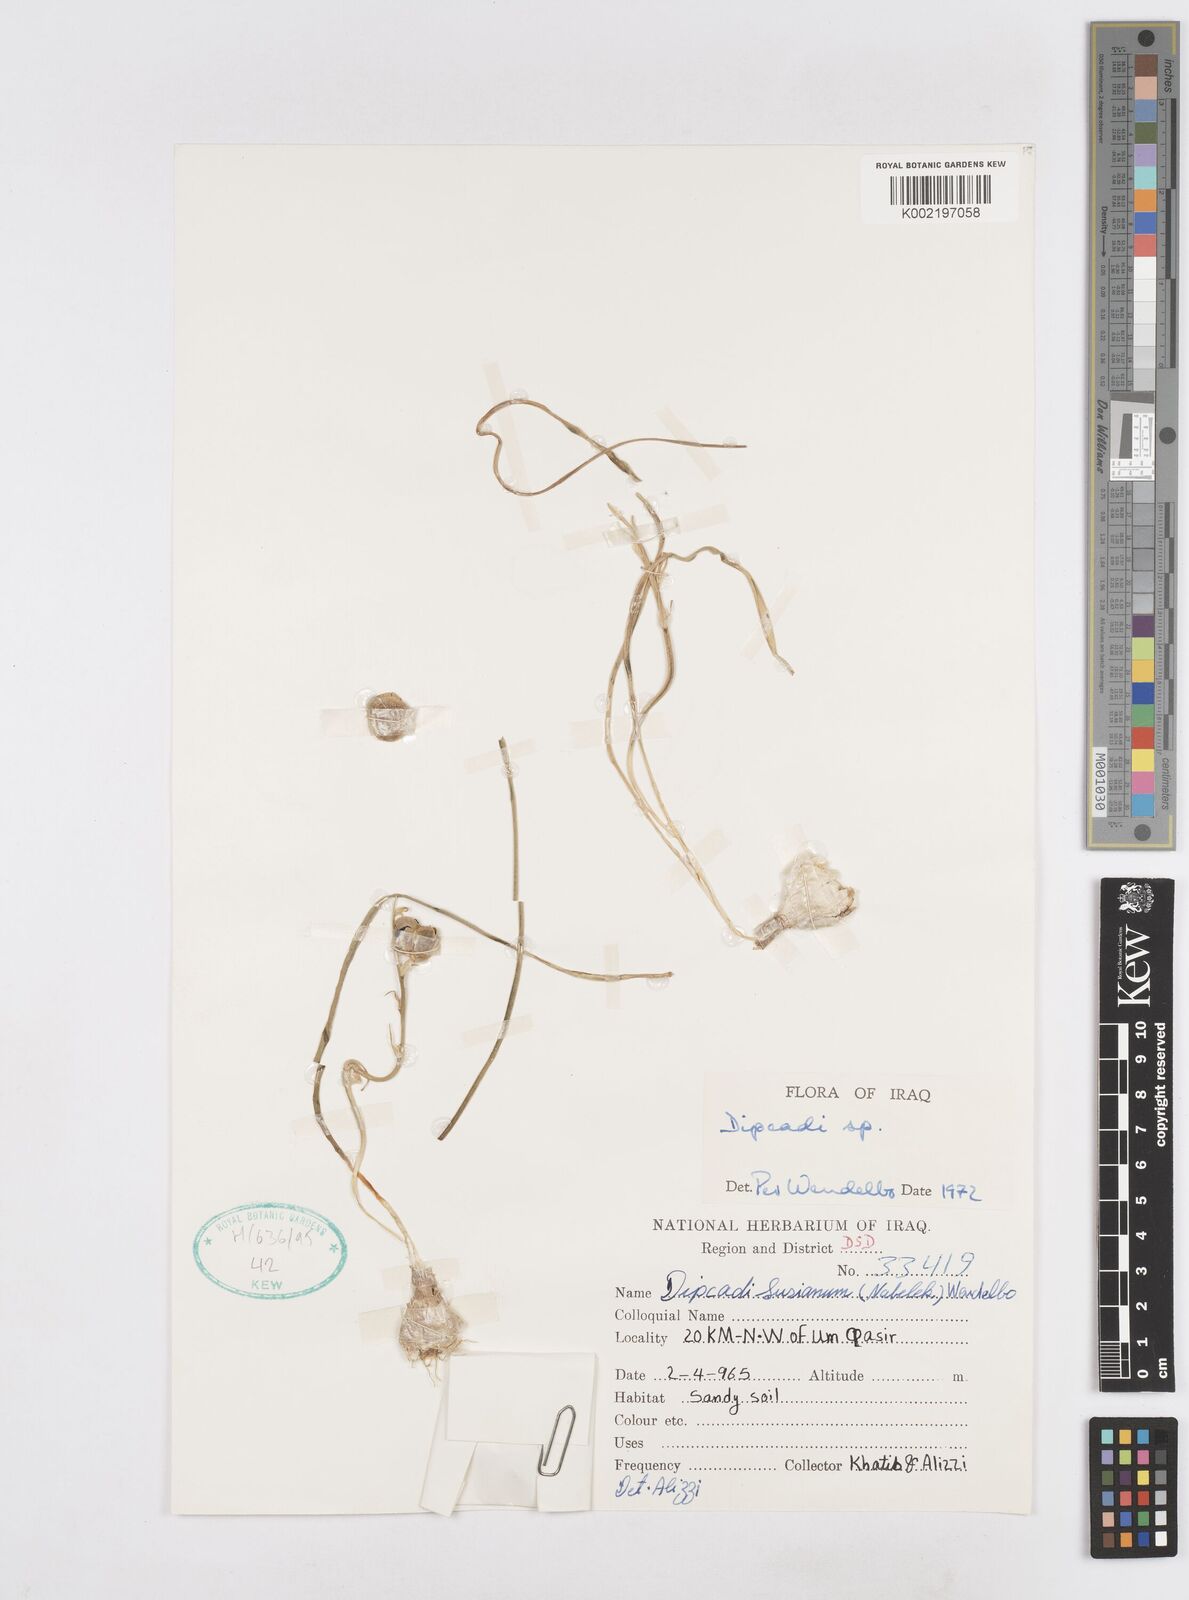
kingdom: Plantae
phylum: Tracheophyta
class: Liliopsida
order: Asparagales
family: Asparagaceae
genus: Dipcadi
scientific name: Dipcadi susianum
